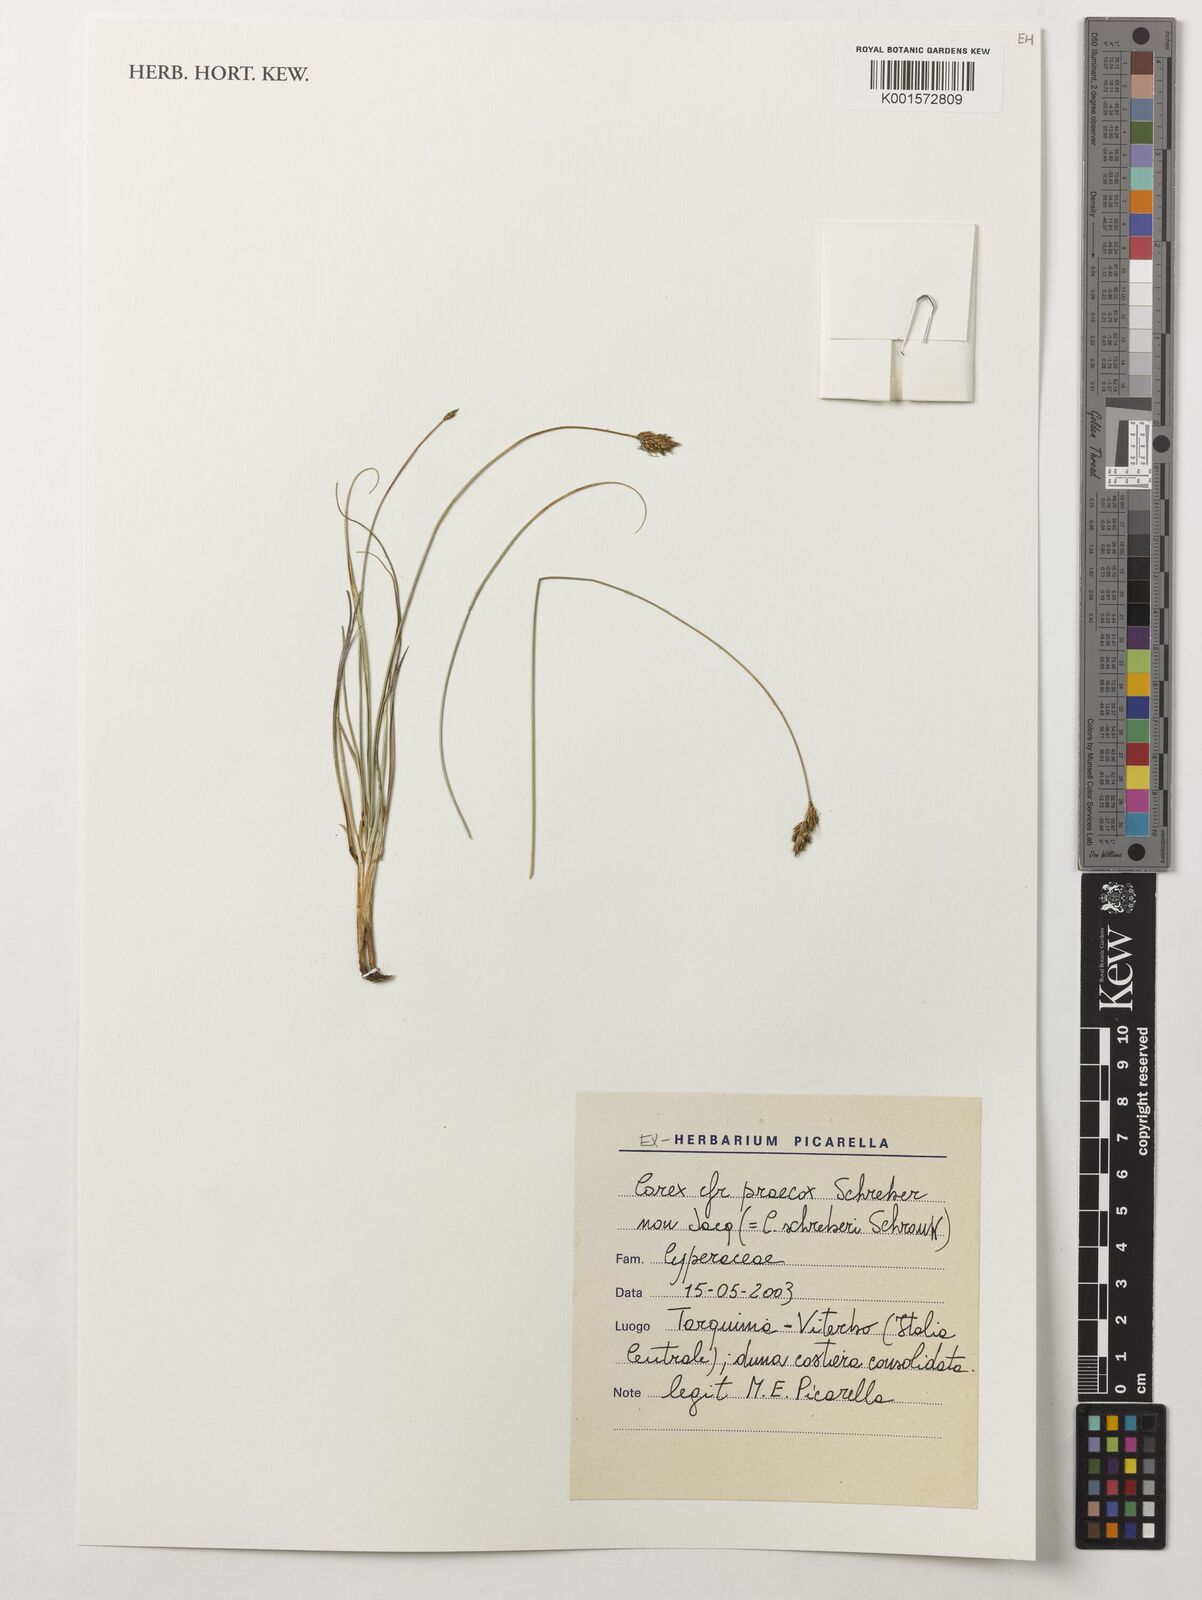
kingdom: Plantae
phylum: Tracheophyta
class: Liliopsida
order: Poales
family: Cyperaceae
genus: Carex
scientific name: Carex praecox
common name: Early sedge
